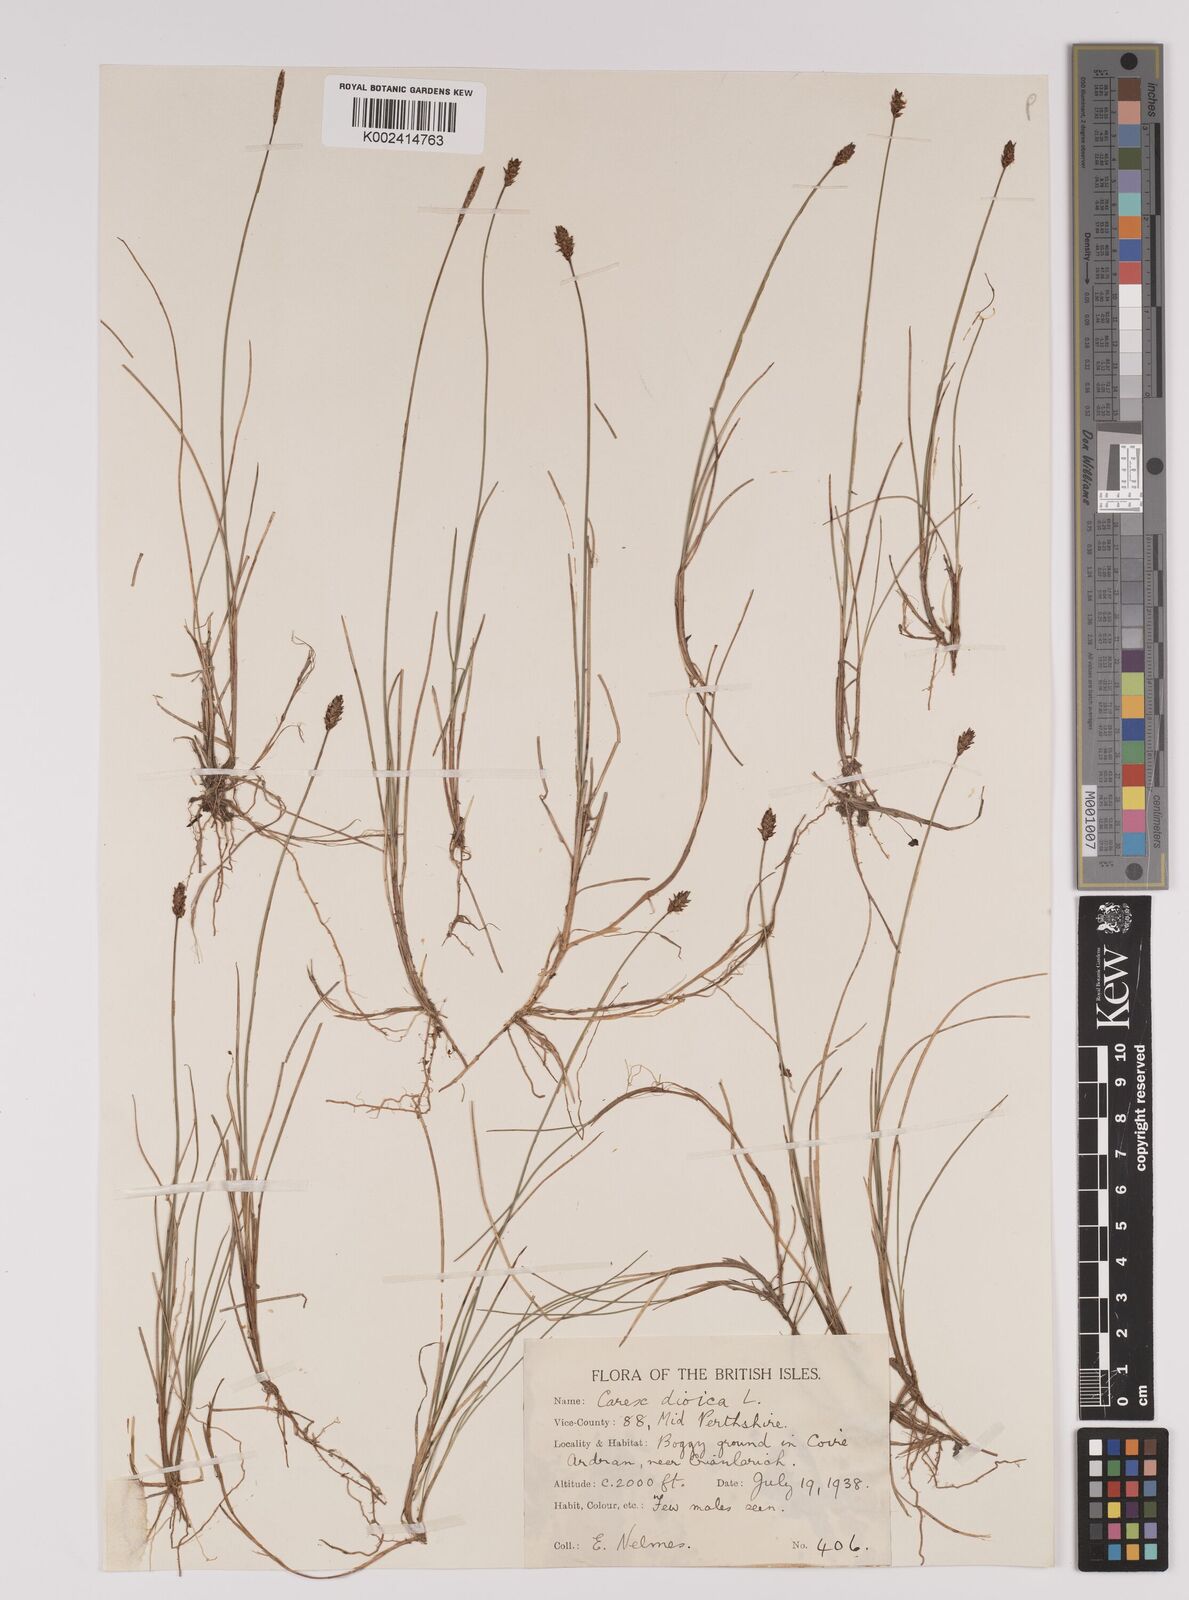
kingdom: Plantae
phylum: Tracheophyta
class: Liliopsida
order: Poales
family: Cyperaceae
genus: Carex
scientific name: Carex dioica
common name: Dioecious sedge
